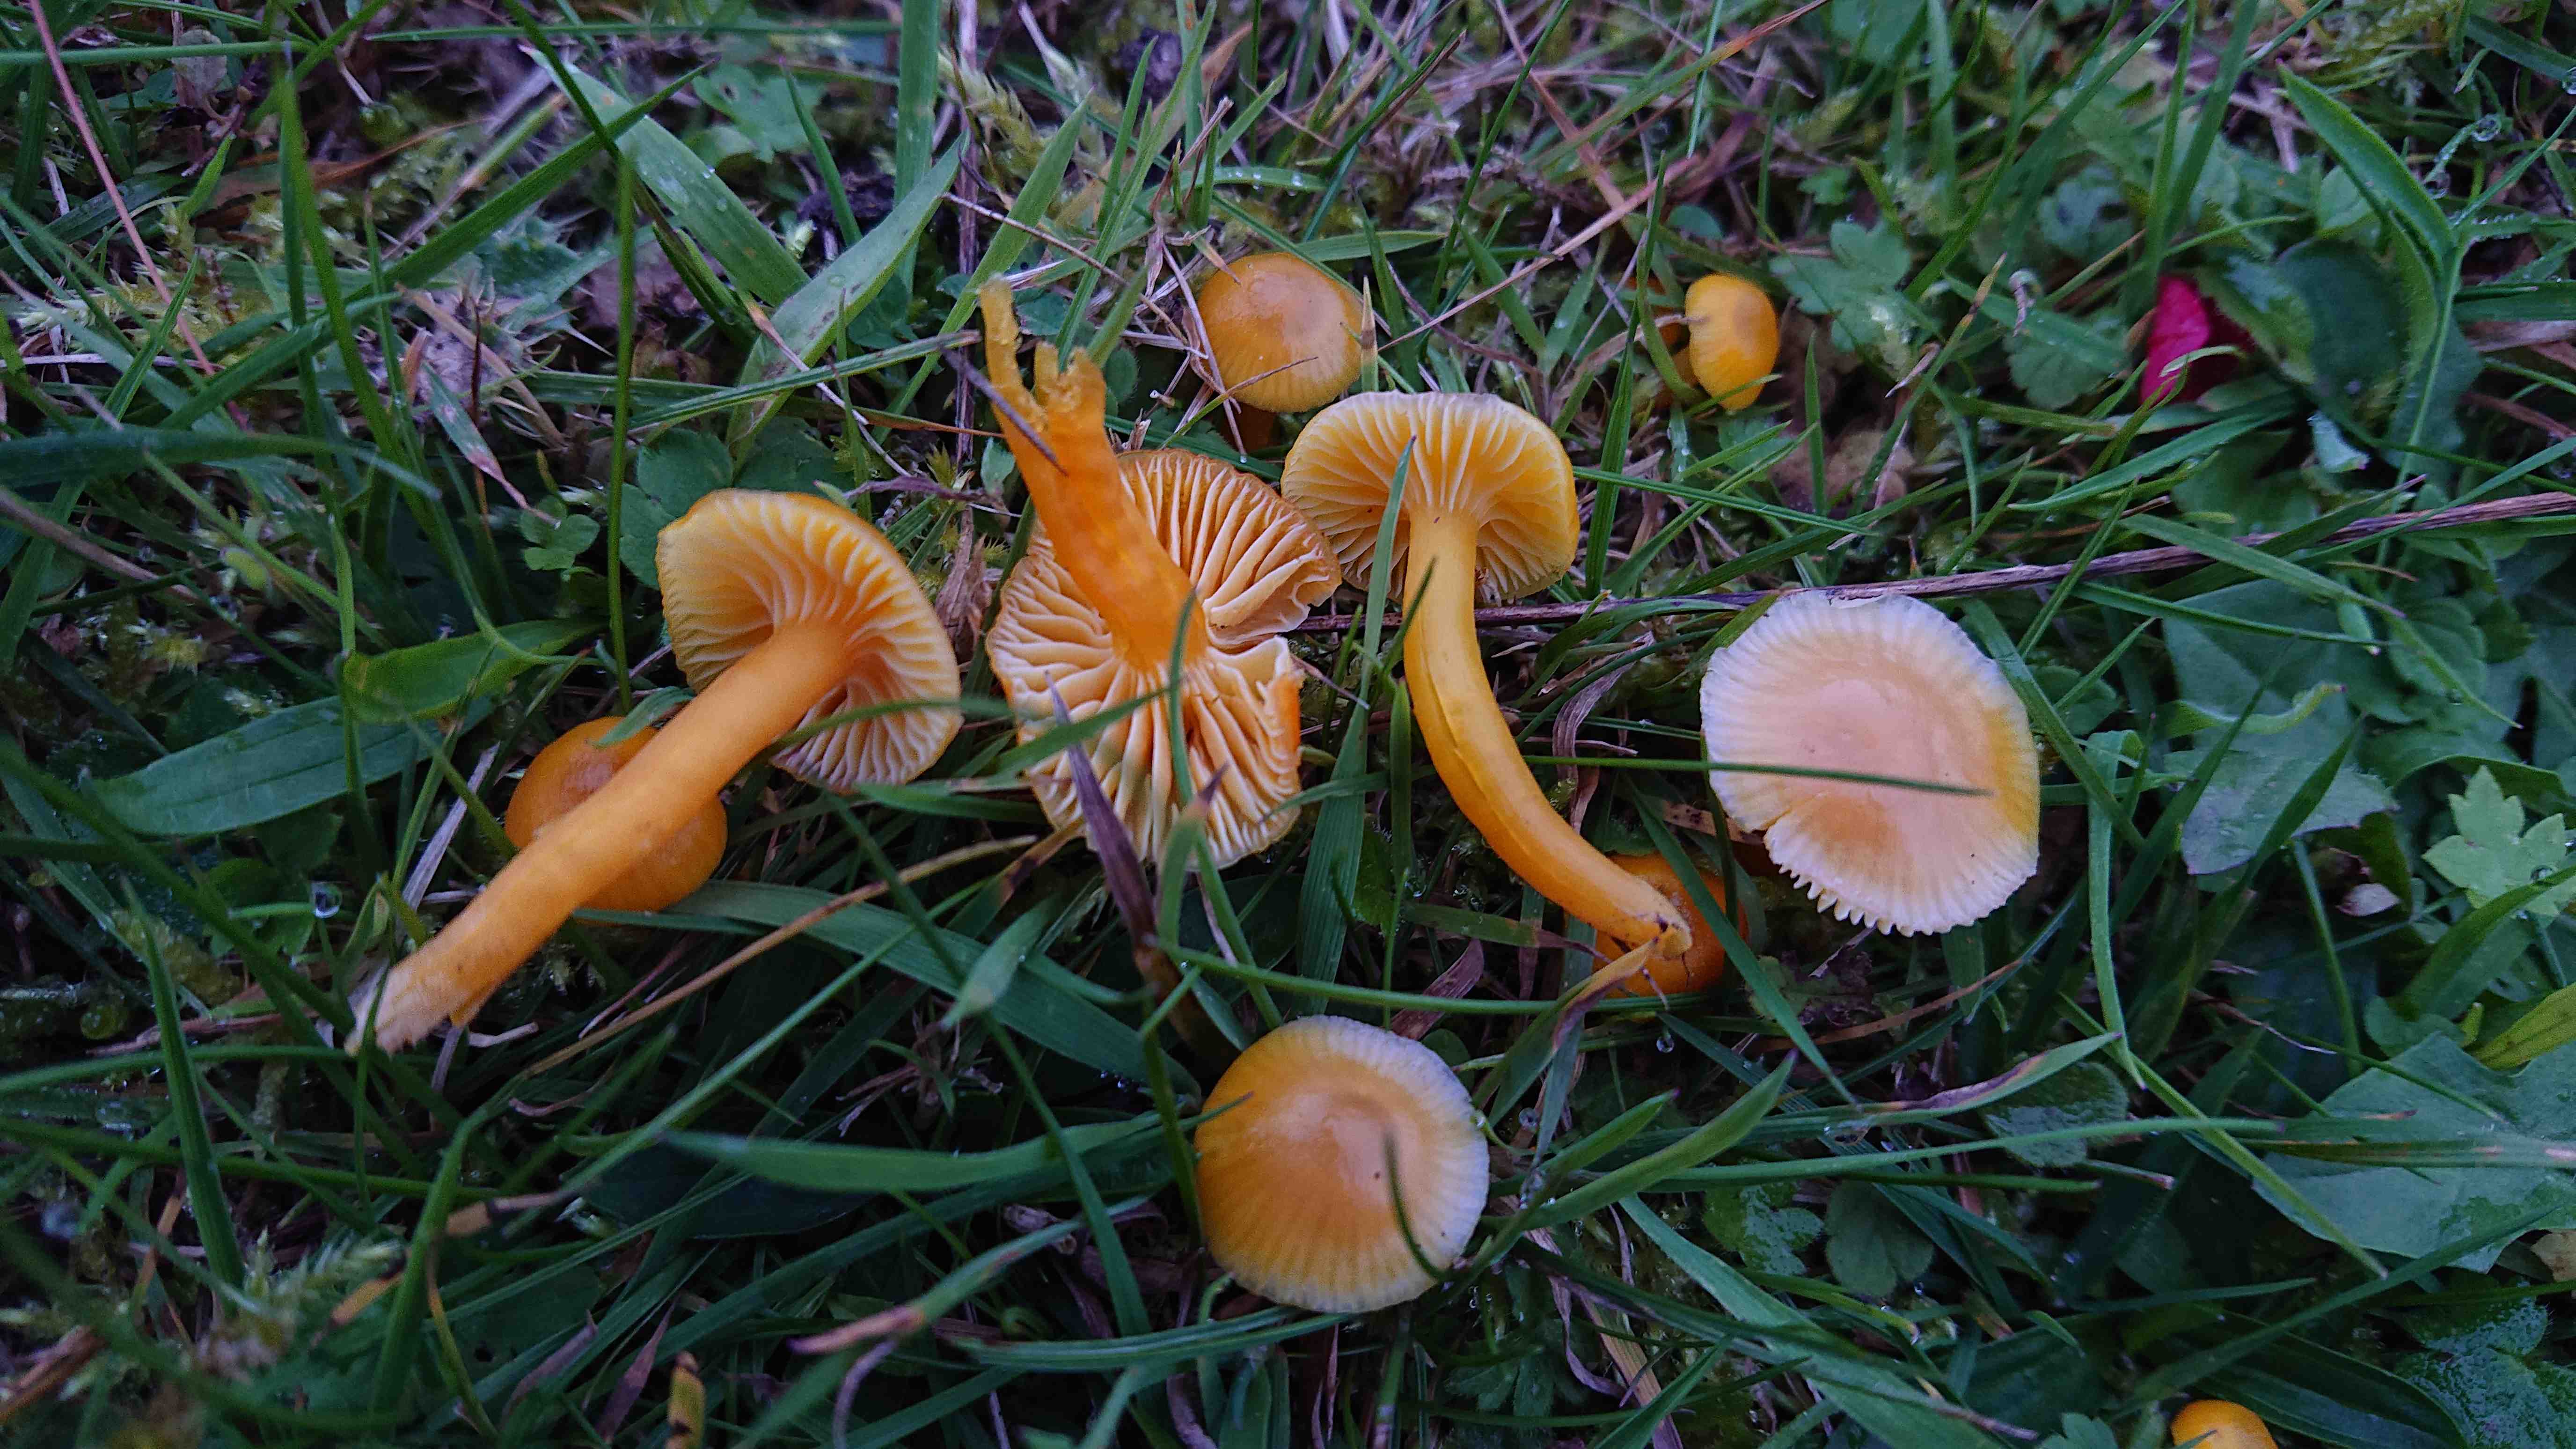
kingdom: Fungi
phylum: Basidiomycota
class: Agaricomycetes
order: Agaricales
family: Hygrophoraceae
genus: Hygrocybe
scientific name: Hygrocybe ceracea
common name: voksgul vokshat
